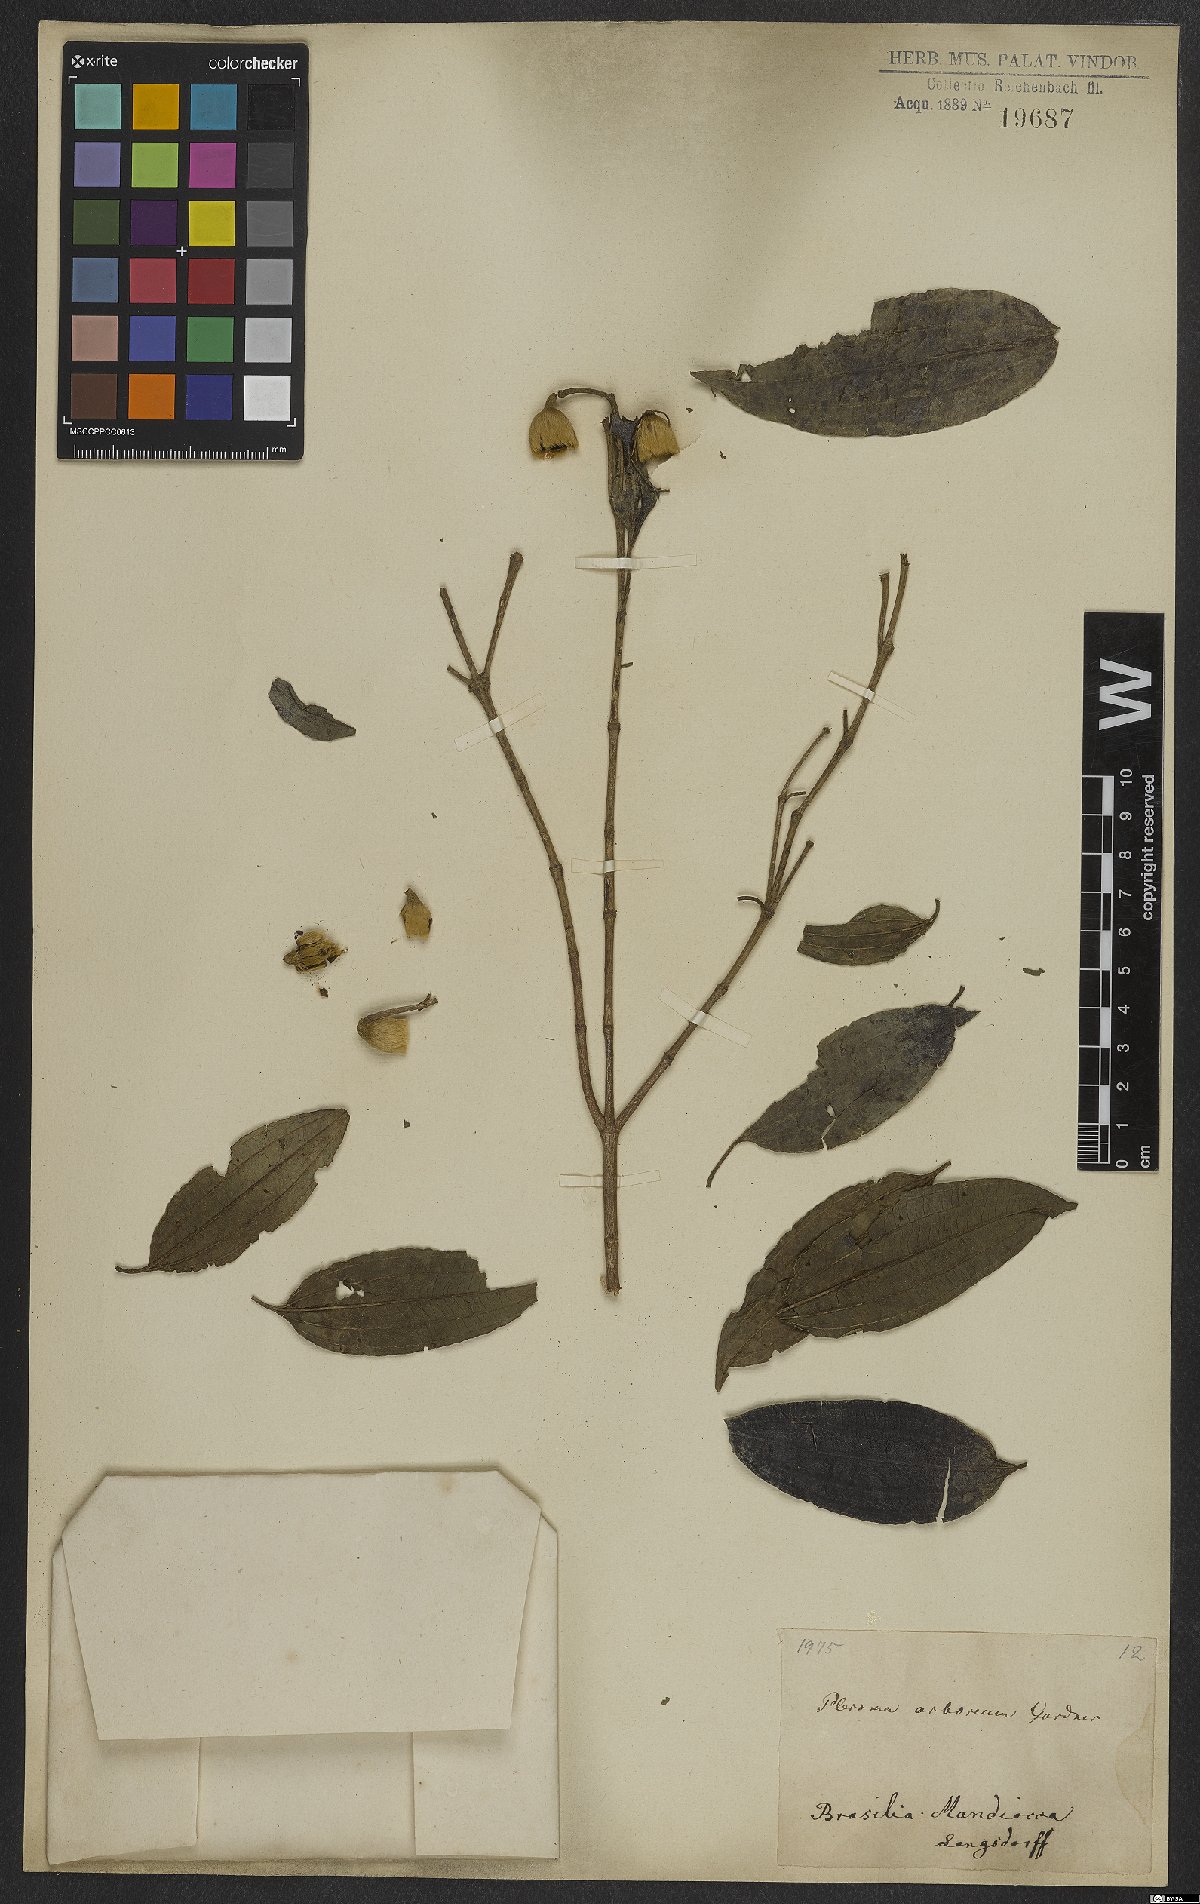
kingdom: Plantae
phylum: Tracheophyta
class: Magnoliopsida
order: Myrtales
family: Melastomataceae
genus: Pleroma
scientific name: Pleroma arboreum
